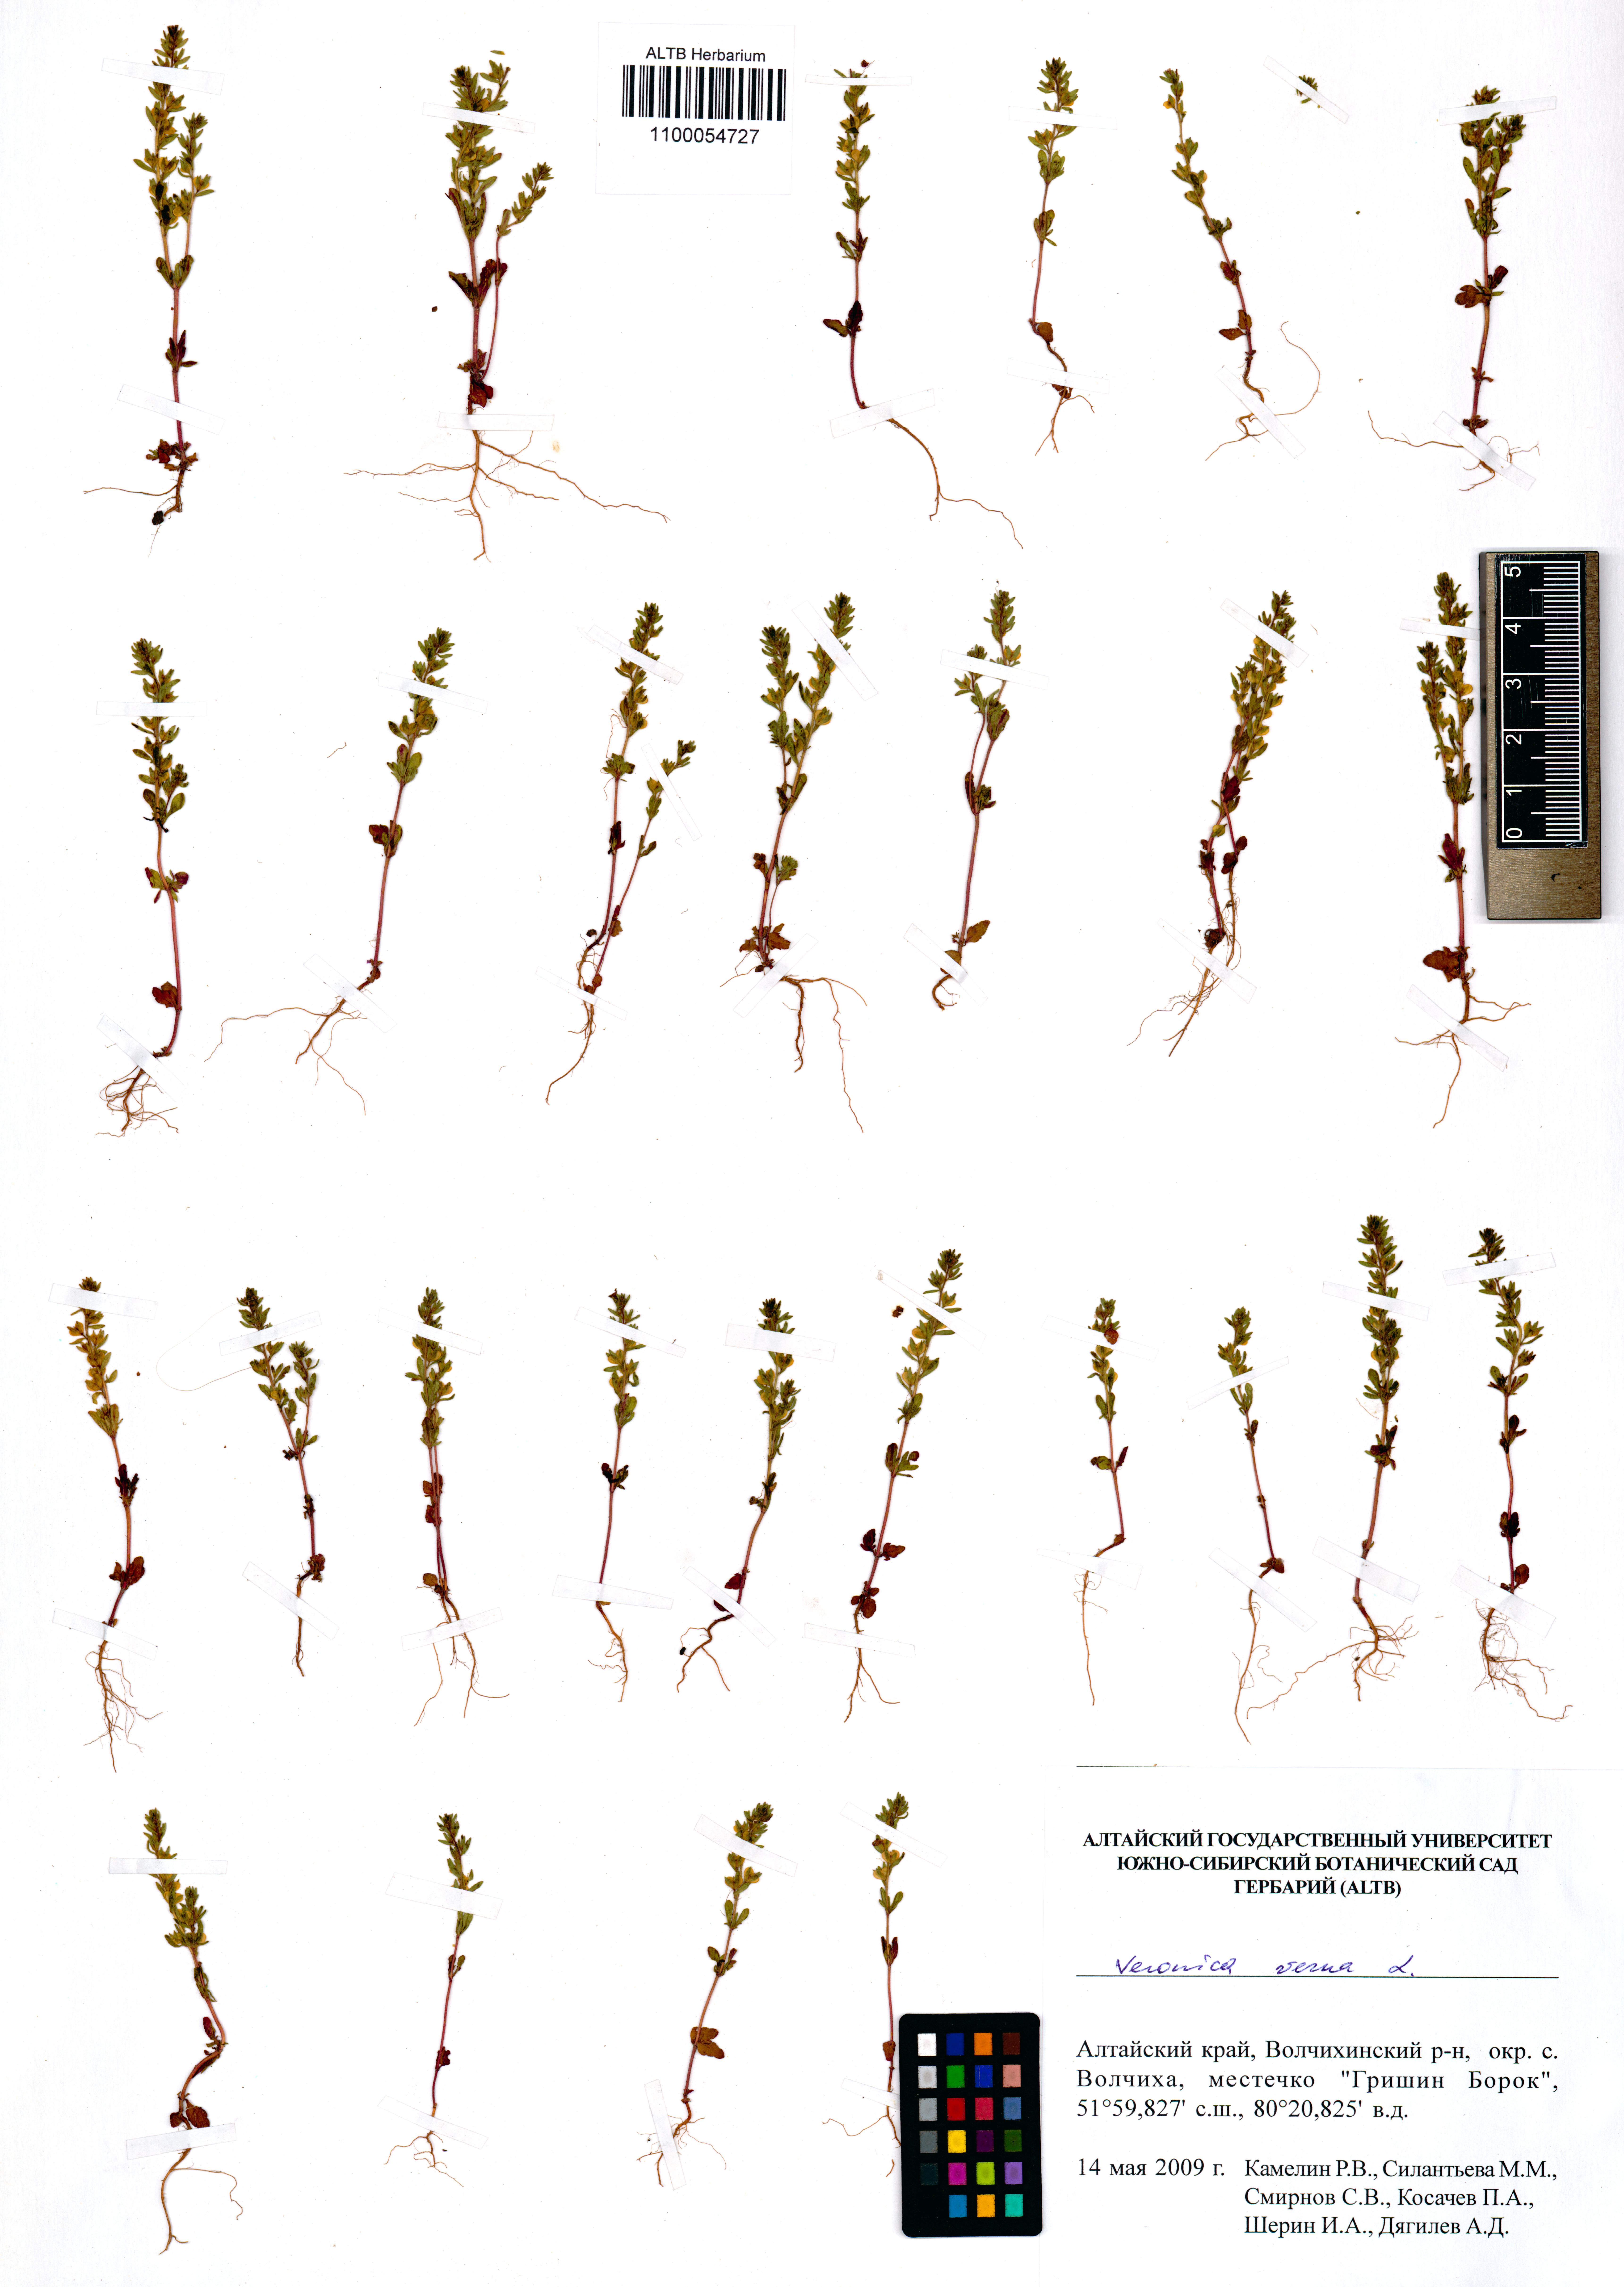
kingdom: Plantae
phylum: Tracheophyta
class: Magnoliopsida
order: Lamiales
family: Plantaginaceae
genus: Veronica
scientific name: Veronica verna
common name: Spring speedwell
